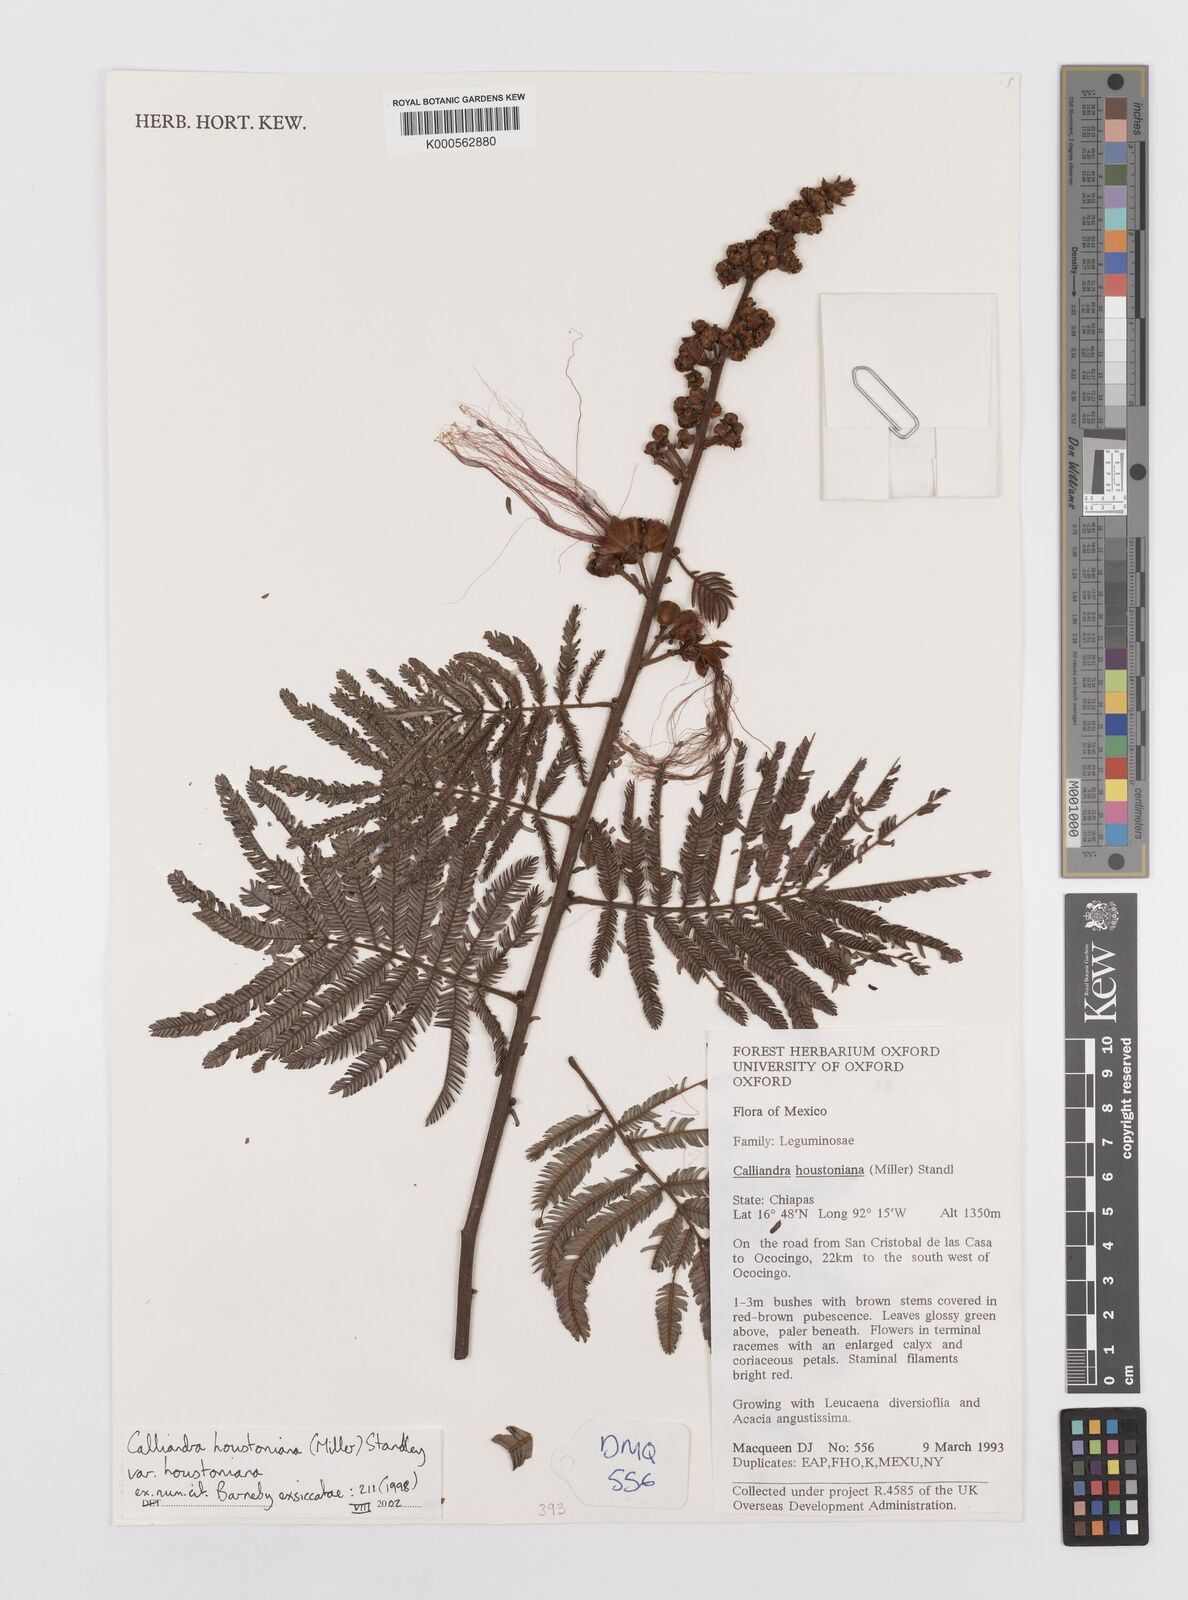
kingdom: Plantae
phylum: Tracheophyta
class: Magnoliopsida
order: Fabales
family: Fabaceae
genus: Calliandra
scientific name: Calliandra houstoniana
